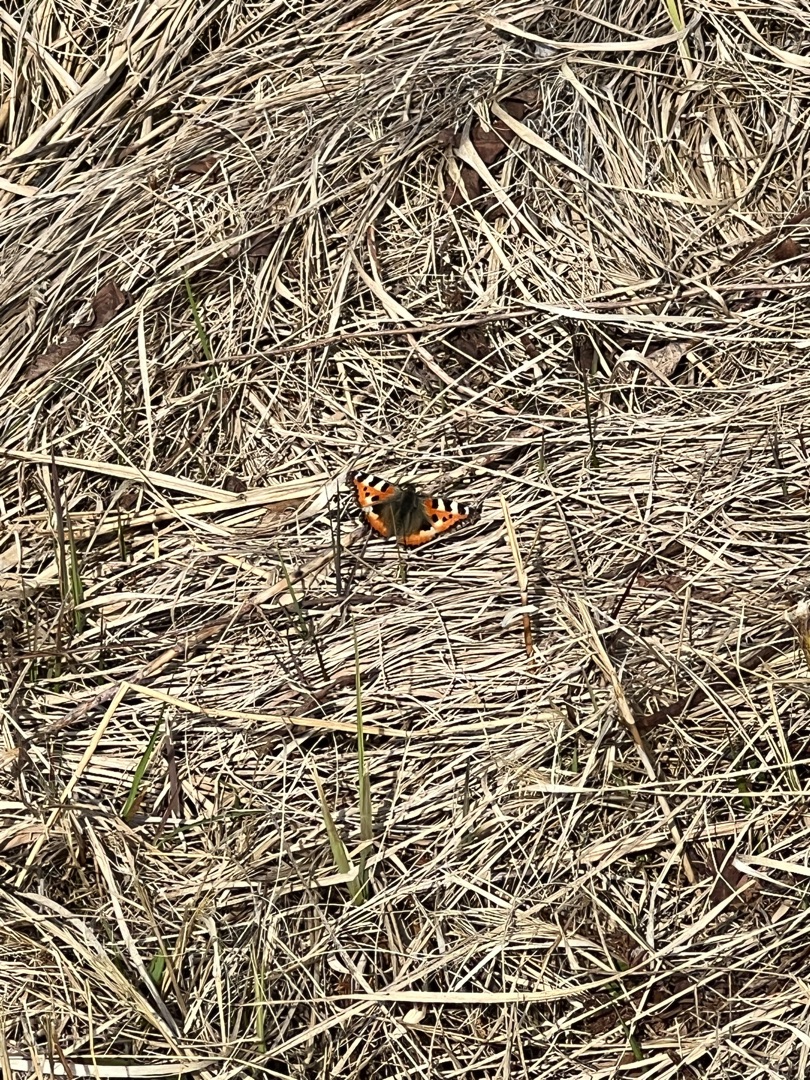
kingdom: Animalia
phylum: Arthropoda
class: Insecta
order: Lepidoptera
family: Nymphalidae
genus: Aglais
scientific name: Aglais urticae
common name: Nældens takvinge
